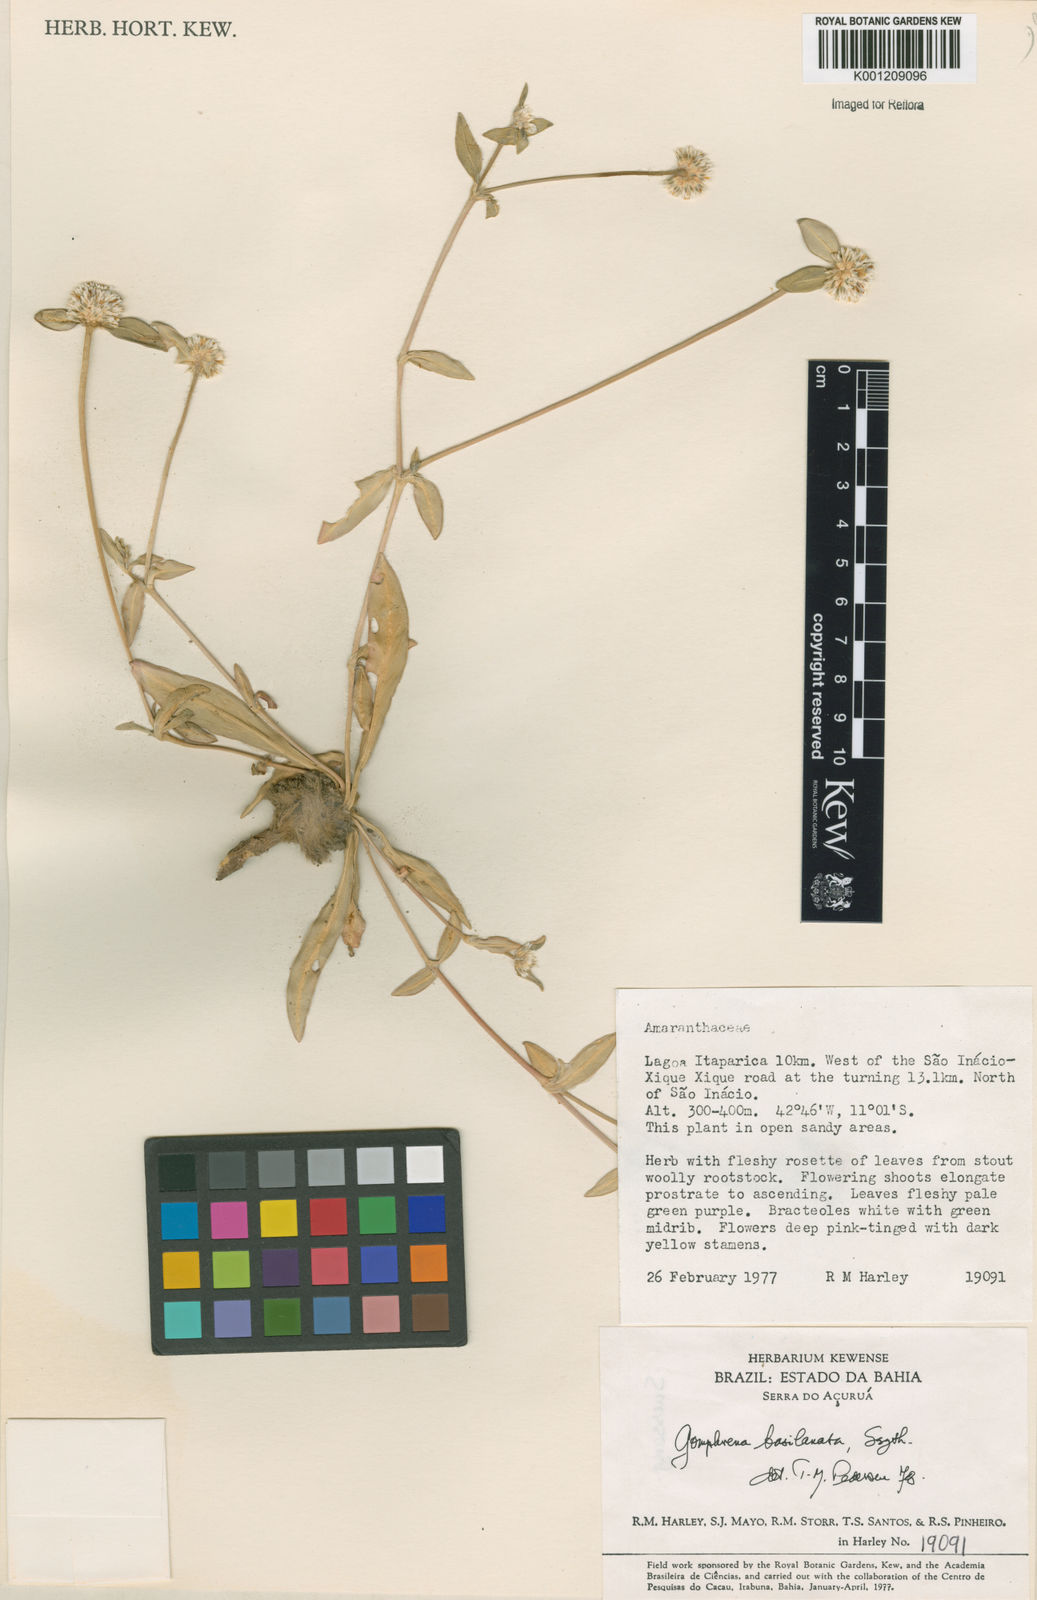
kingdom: Plantae
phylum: Tracheophyta
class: Magnoliopsida
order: Caryophyllales
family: Amaranthaceae
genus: Gomphrena
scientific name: Gomphrena basilanata
